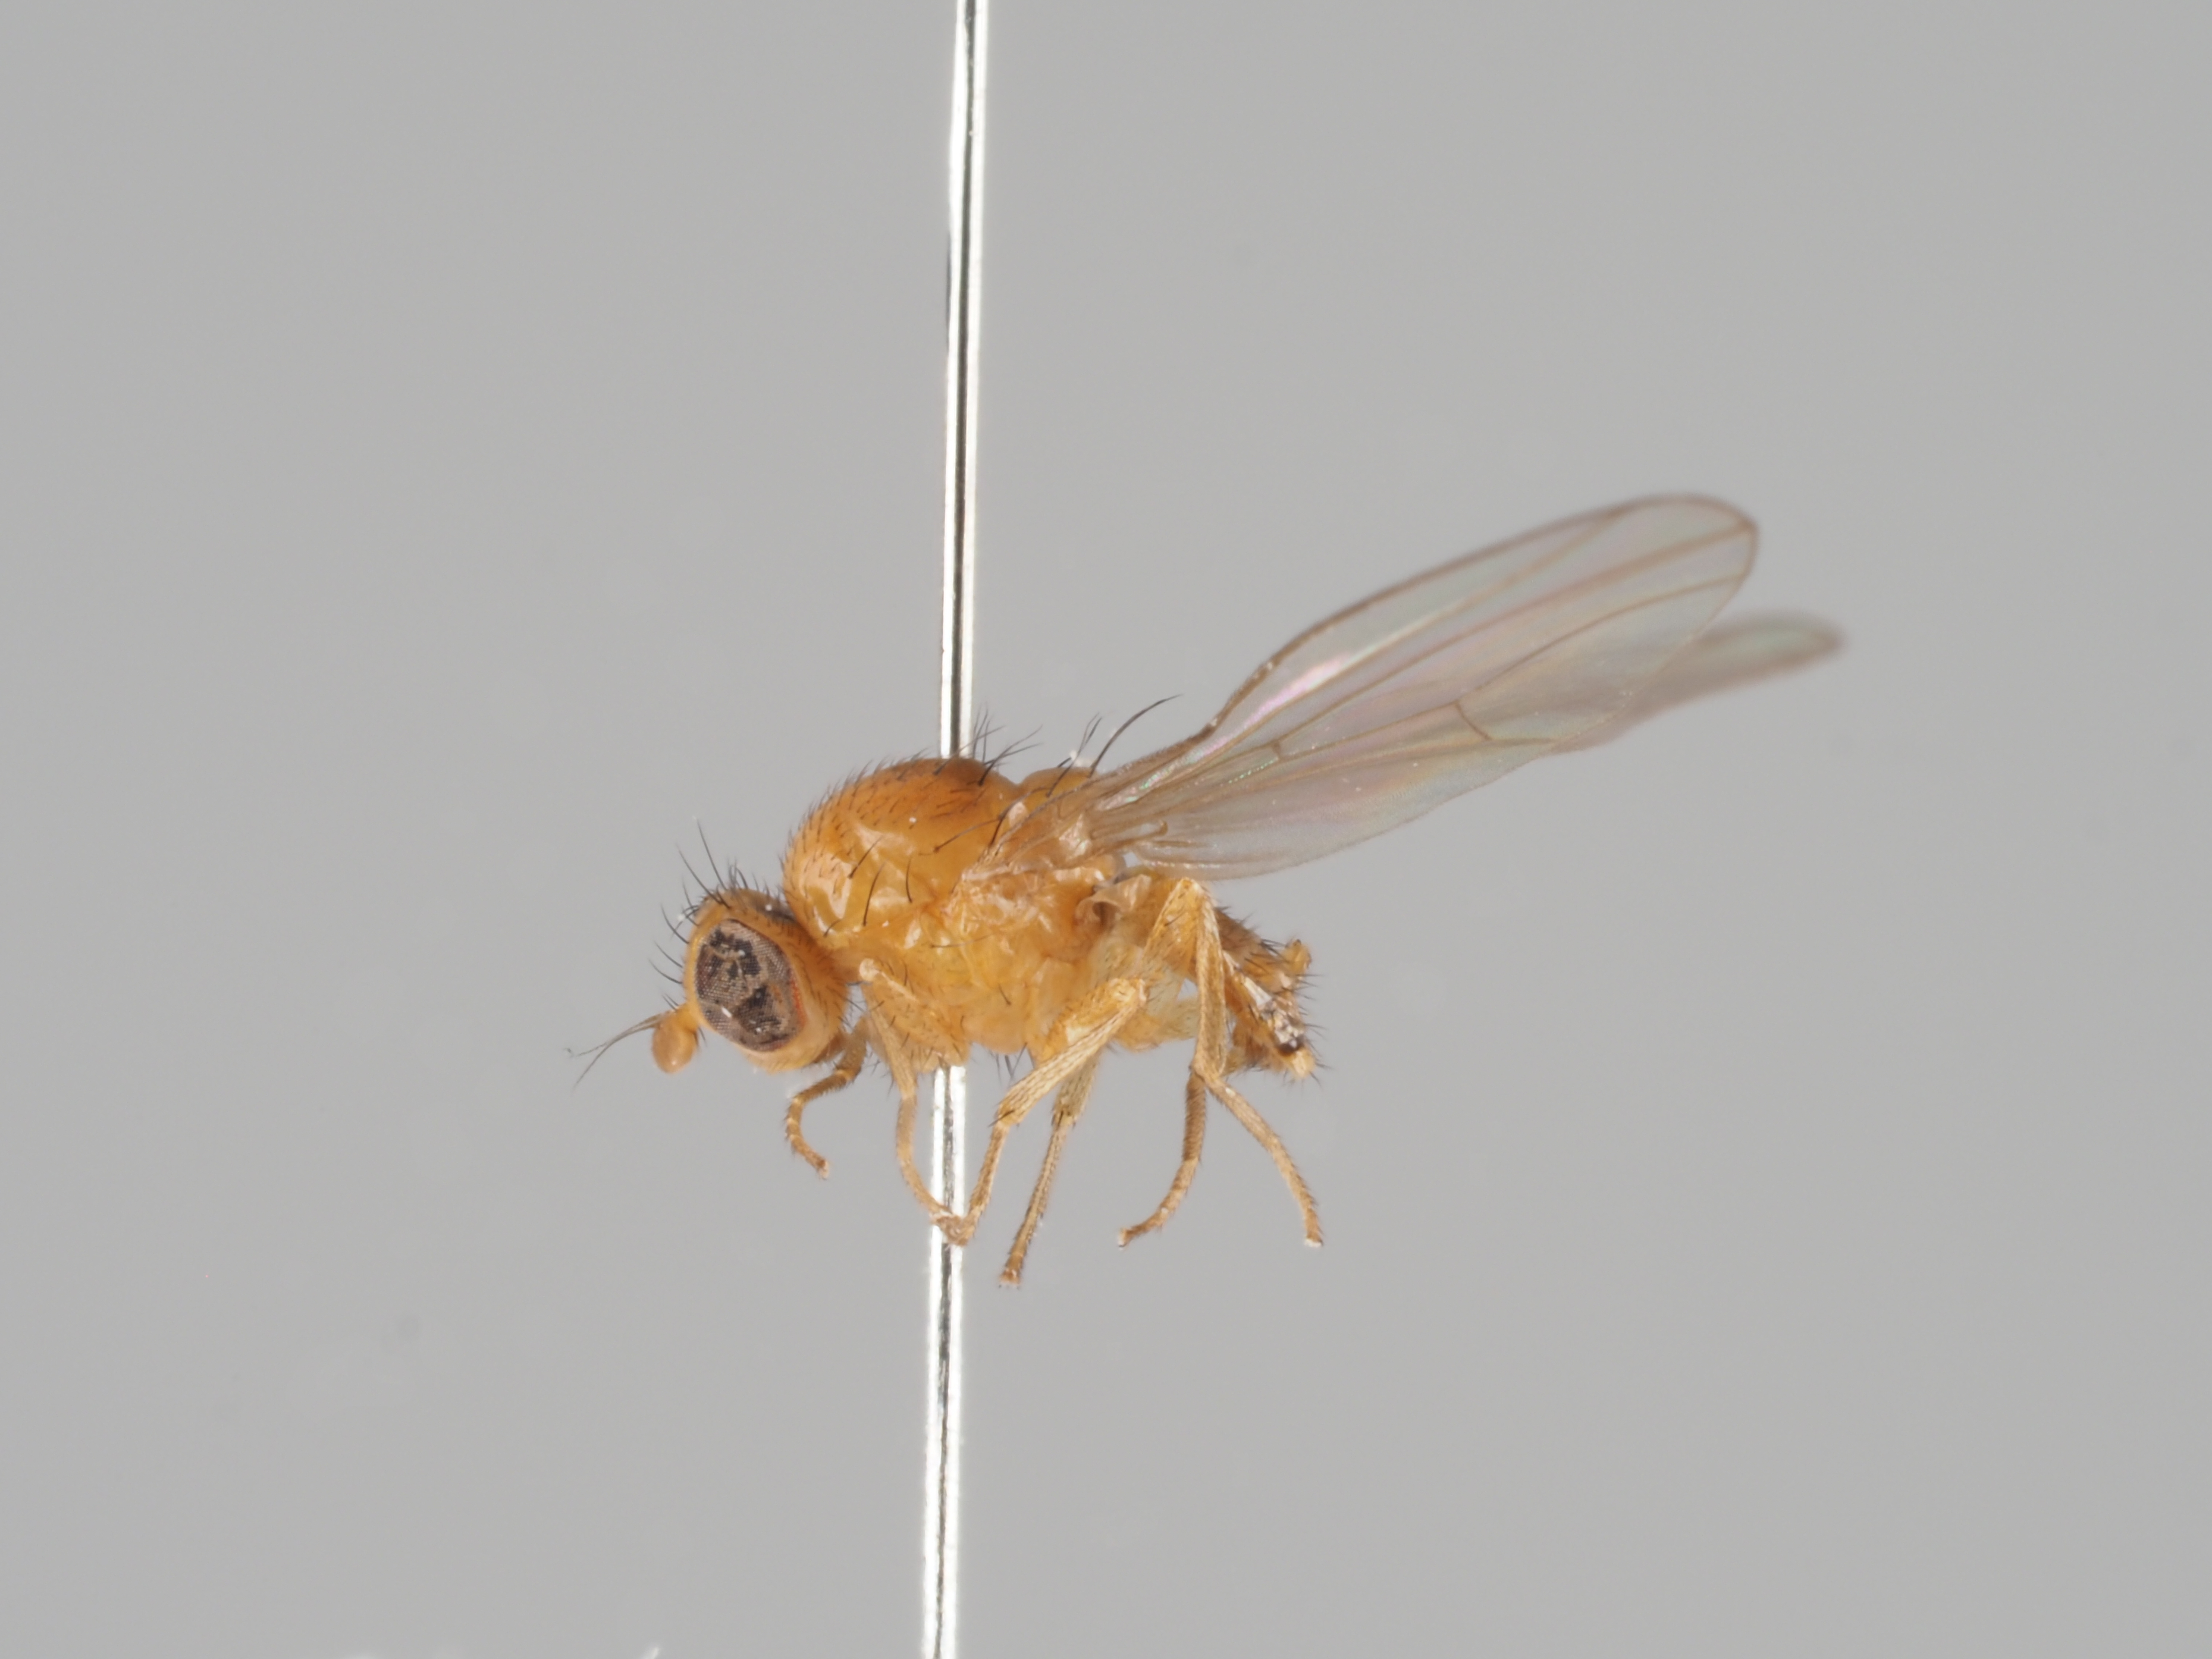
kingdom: Animalia
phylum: Arthropoda
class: Insecta
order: Diptera
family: Lauxaniidae
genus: Sapromyza
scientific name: Sapromyza zetterstedti
